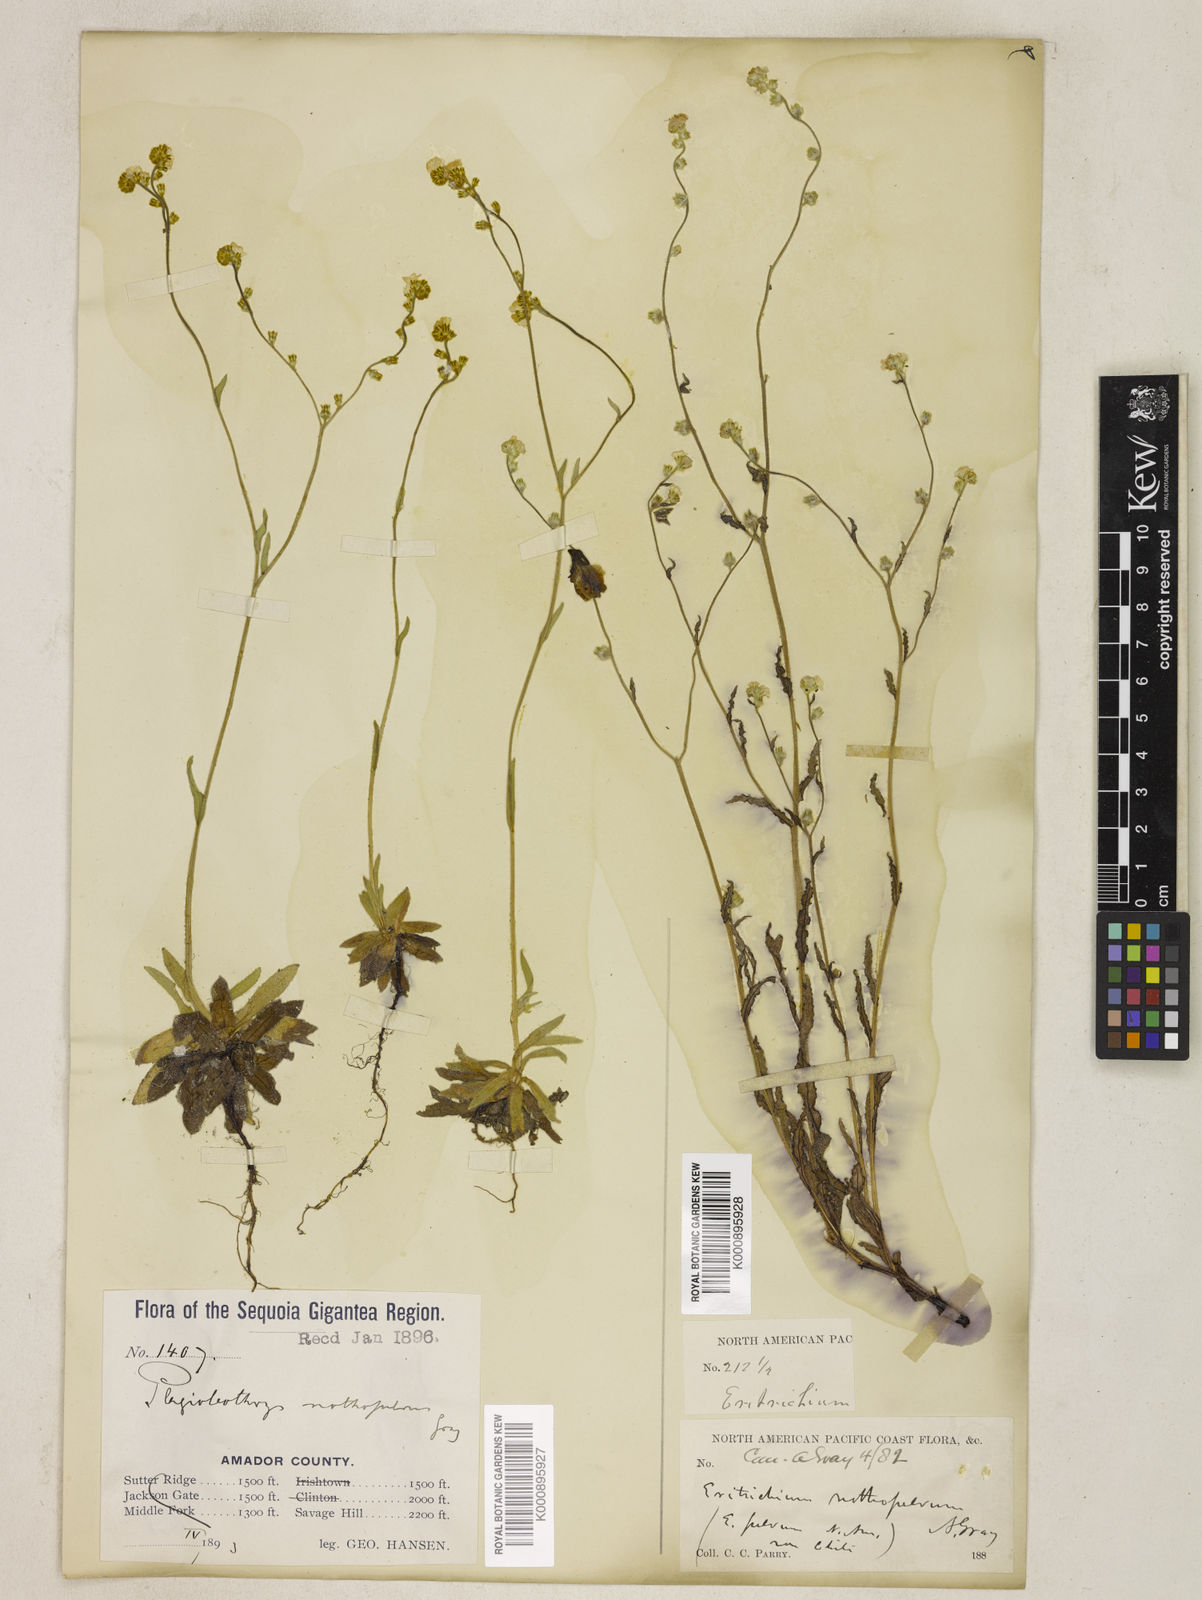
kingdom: Plantae
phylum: Tracheophyta
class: Magnoliopsida
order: Boraginales
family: Boraginaceae
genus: Plagiobothrys
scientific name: Plagiobothrys nothofulvus
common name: Popcorn-flower
